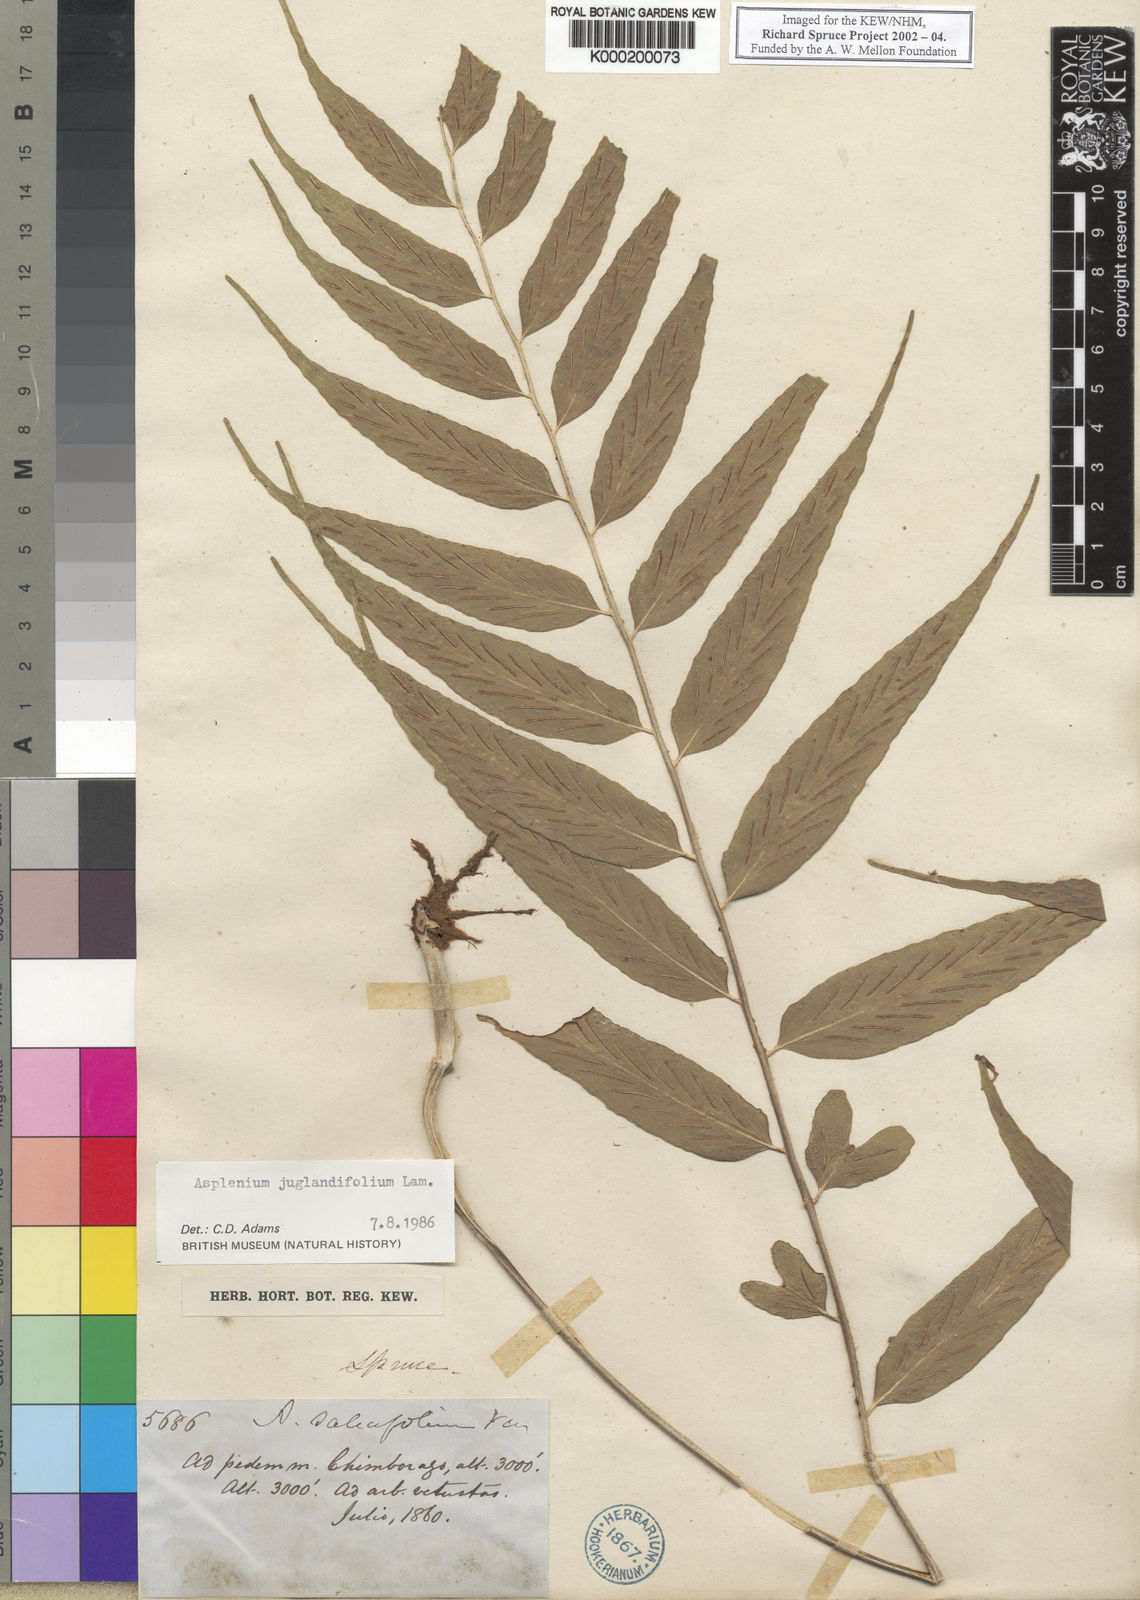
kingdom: Plantae
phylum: Tracheophyta
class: Polypodiopsida
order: Polypodiales
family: Aspleniaceae
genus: Asplenium
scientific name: Asplenium juglandifolium
